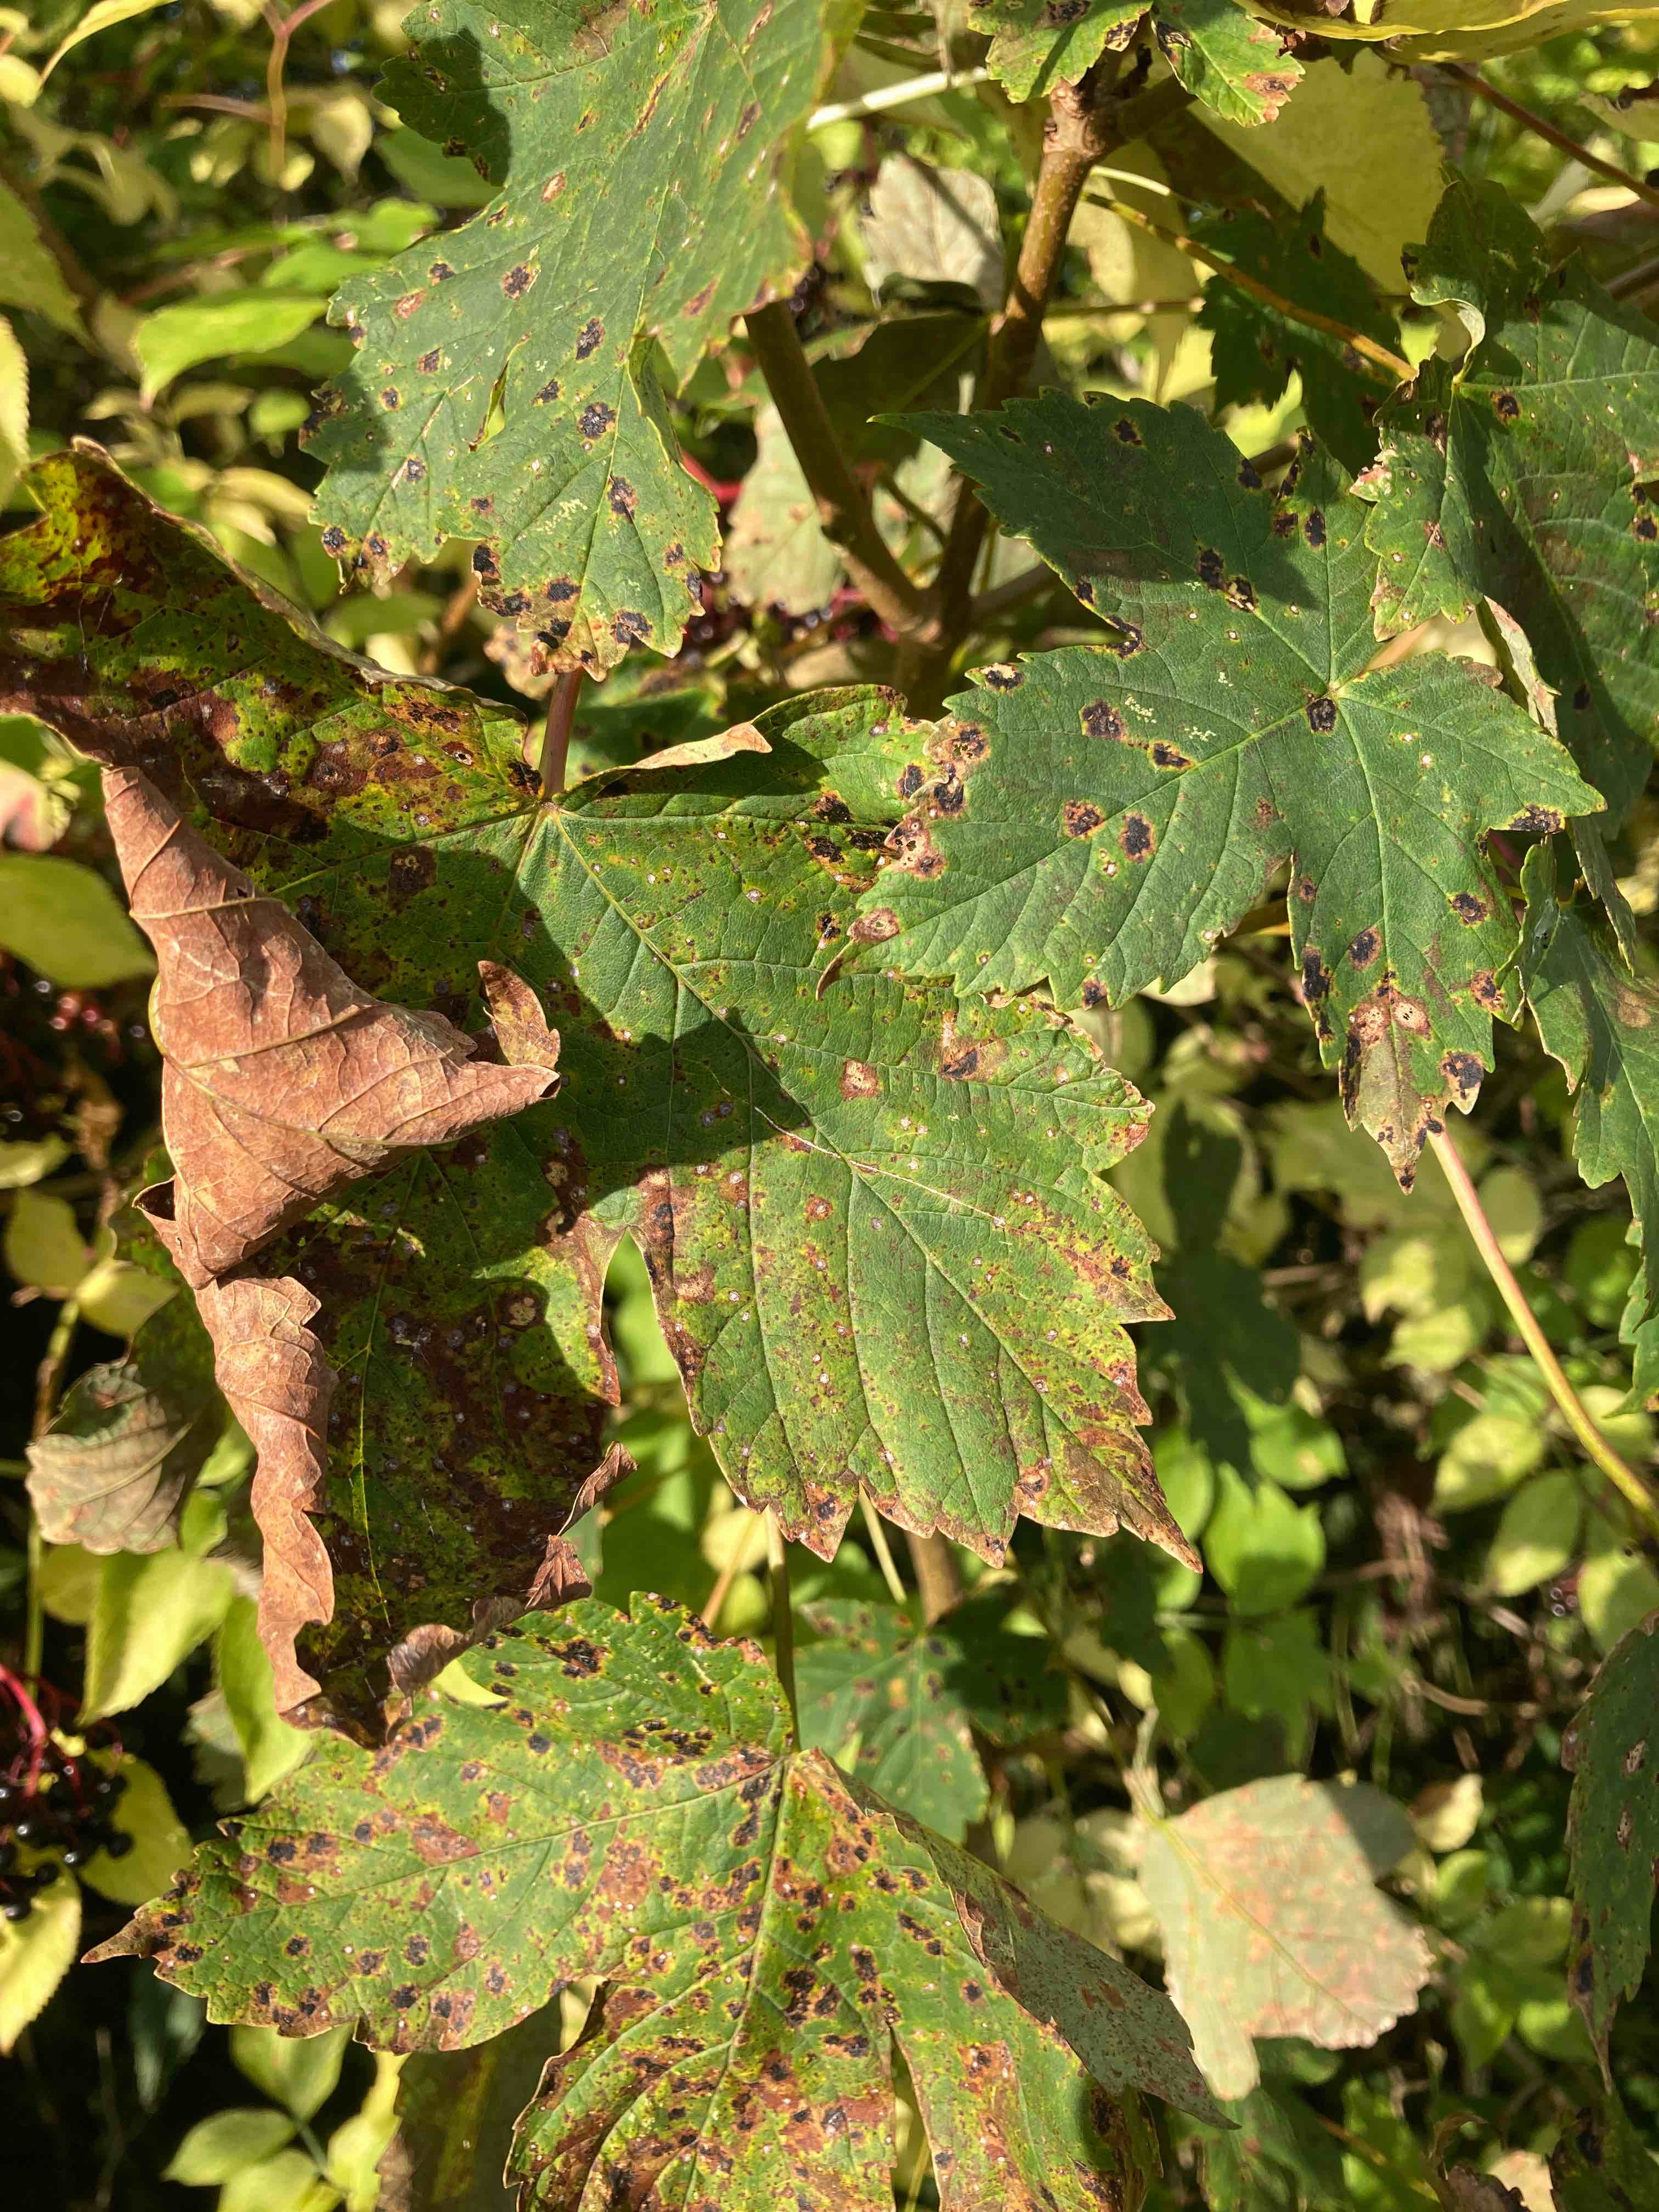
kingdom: Fungi
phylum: Ascomycota
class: Leotiomycetes
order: Rhytismatales
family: Rhytismataceae
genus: Rhytisma
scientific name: Rhytisma acerinum
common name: ahorn-rynkeplet
